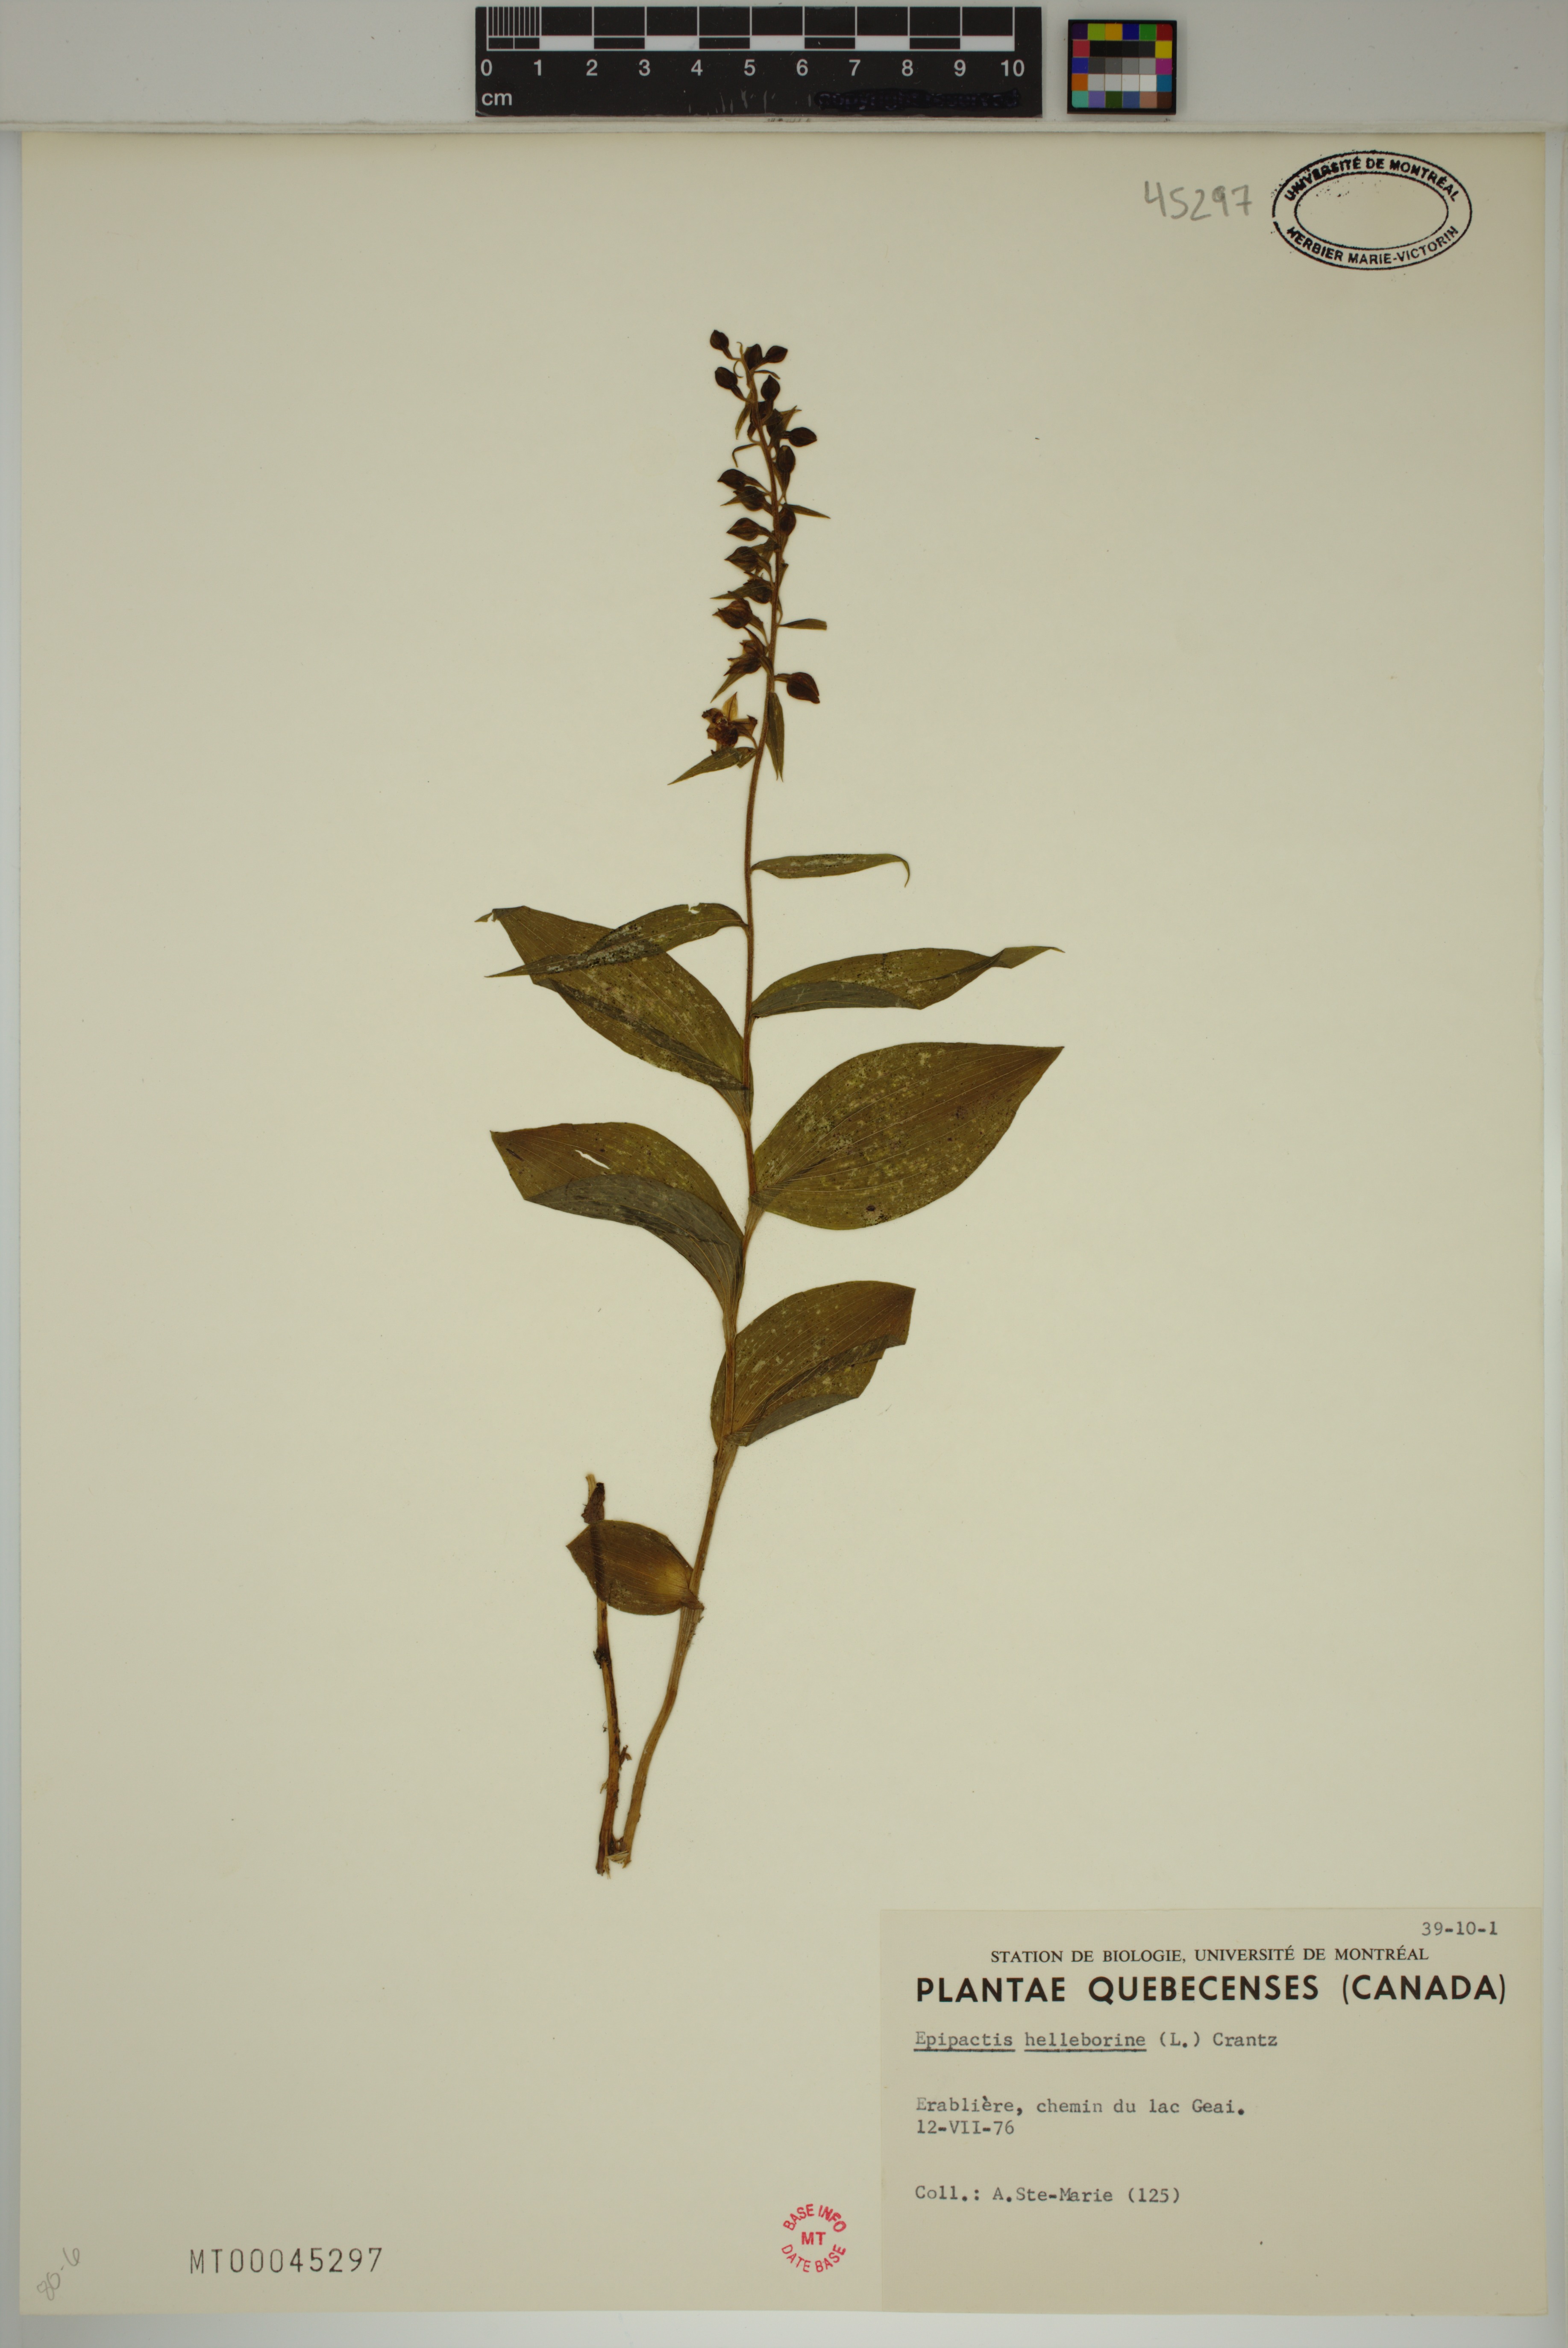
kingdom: Plantae
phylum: Tracheophyta
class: Liliopsida
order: Asparagales
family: Orchidaceae
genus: Epipactis
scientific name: Epipactis helleborine
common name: Broad-leaved helleborine
